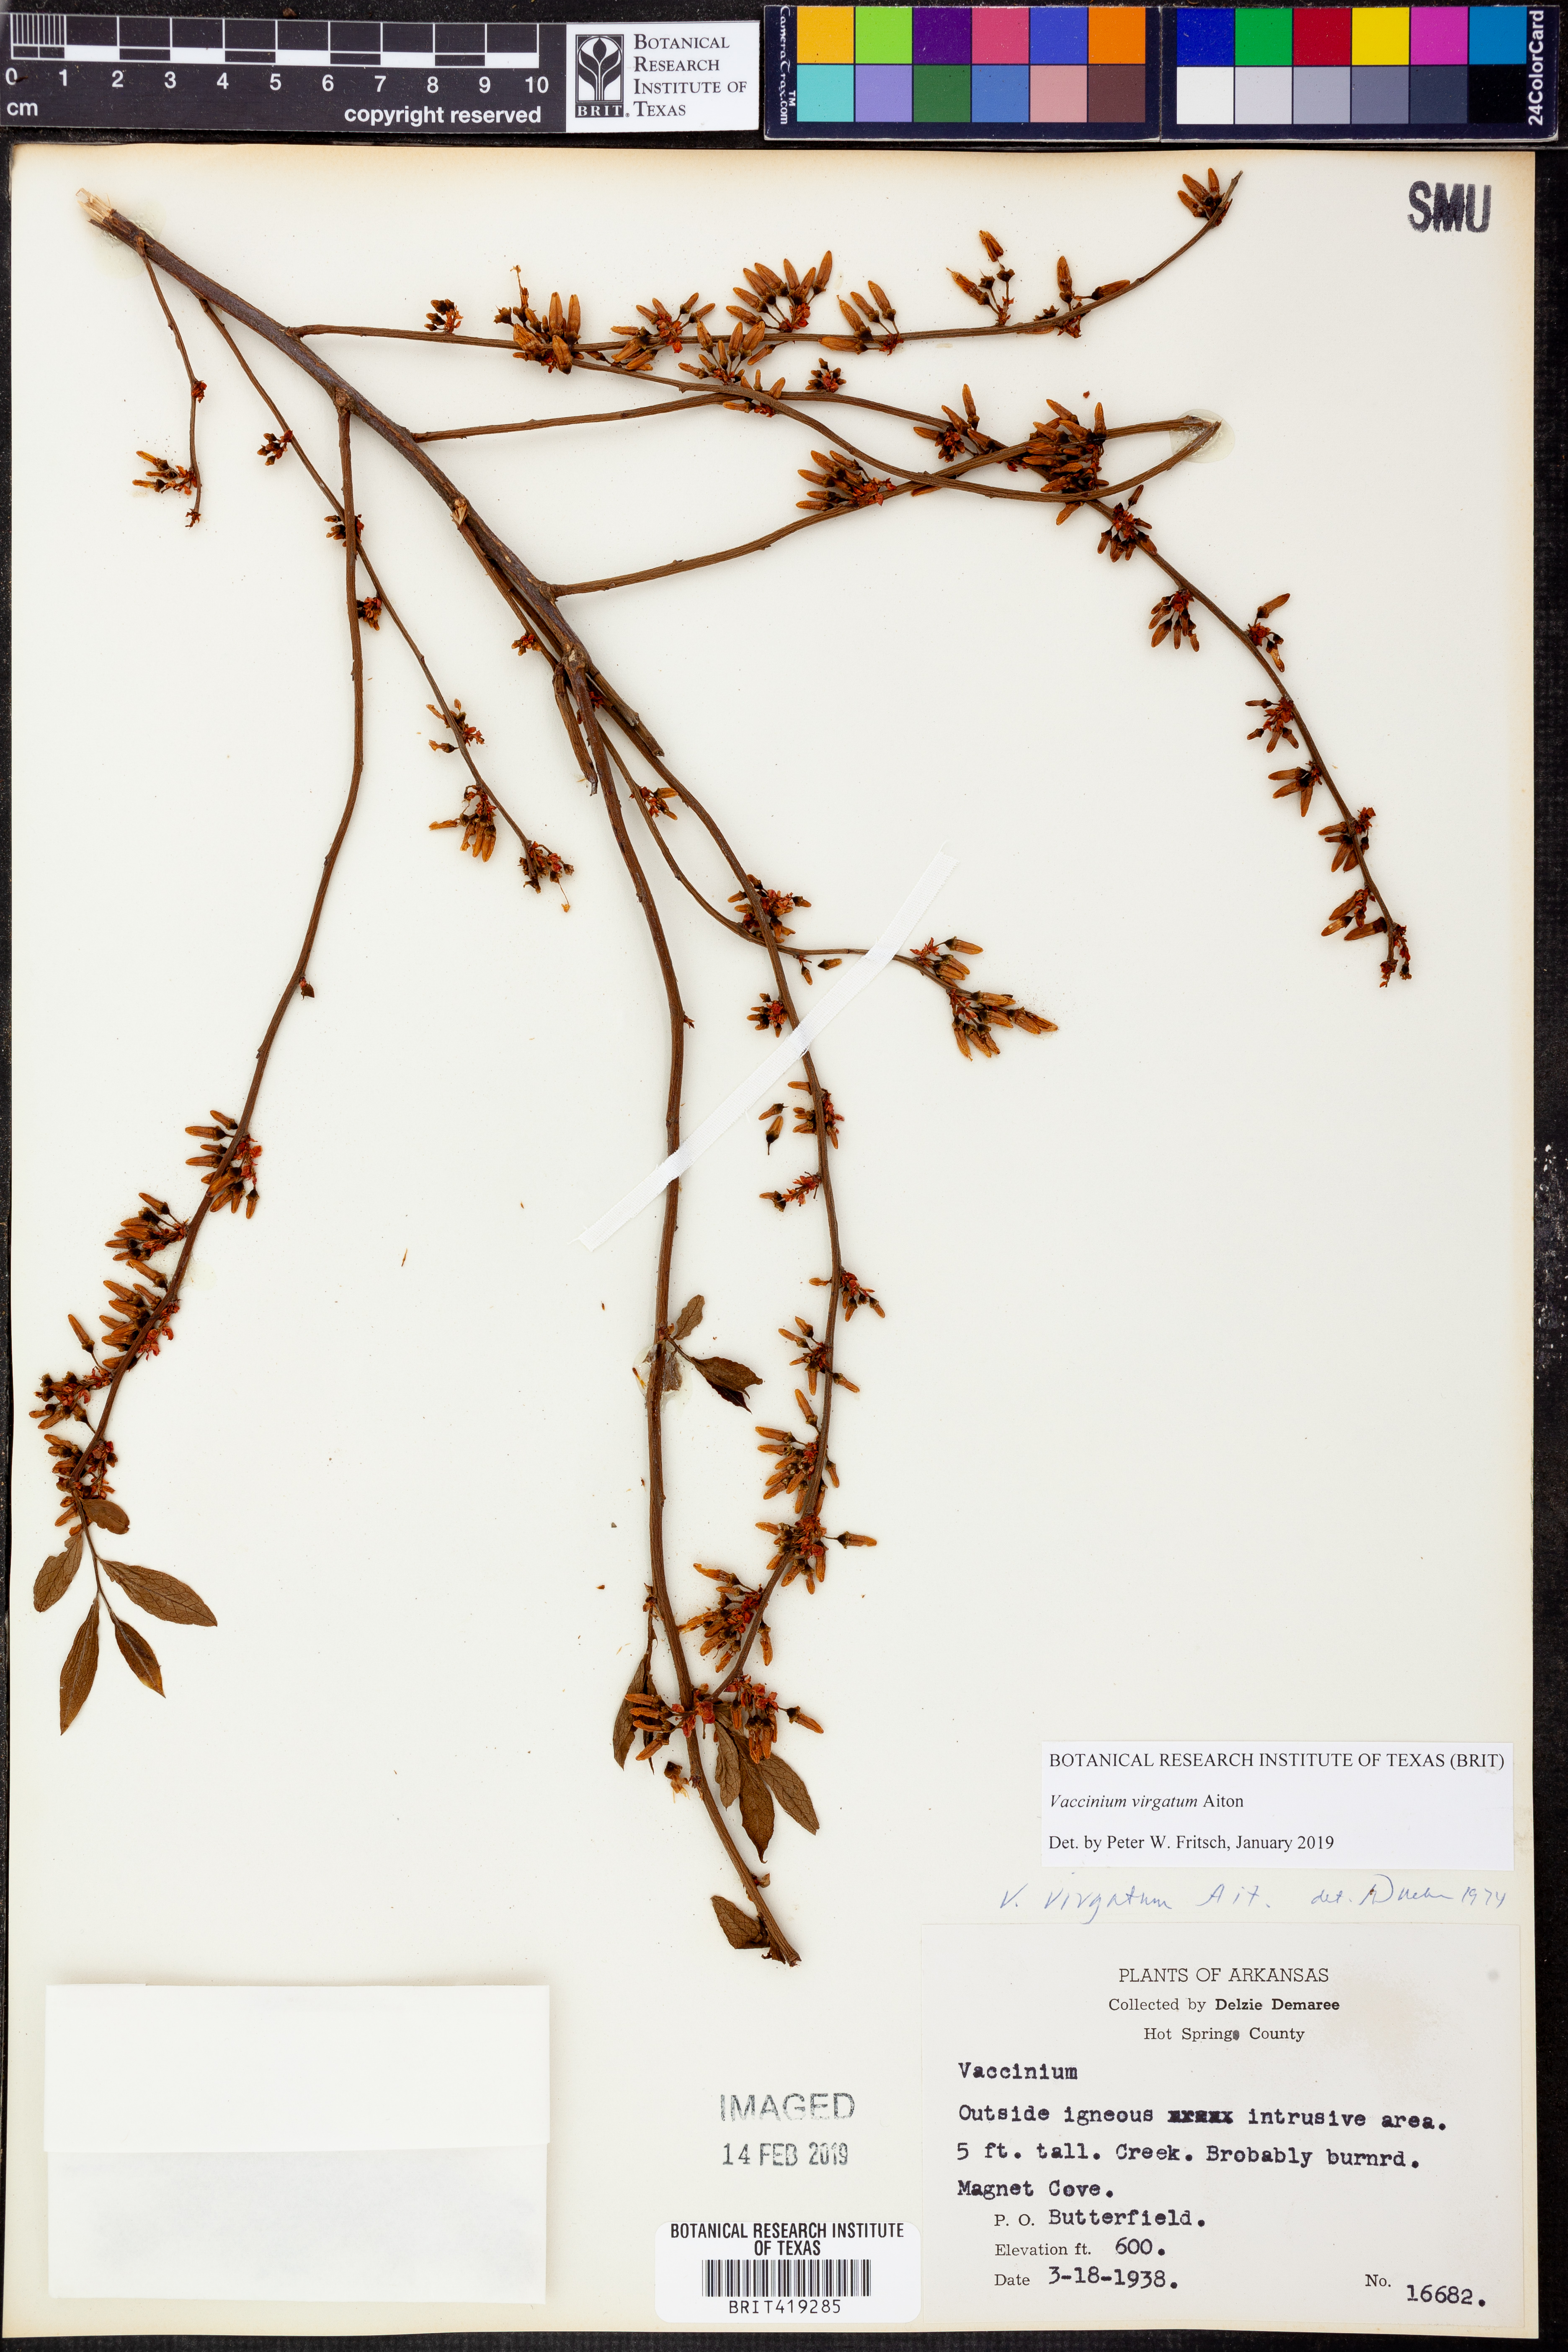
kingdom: Plantae
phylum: Tracheophyta
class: Magnoliopsida
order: Ericales
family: Ericaceae
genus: Vaccinium
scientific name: Vaccinium corymbosum
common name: Blueberry
